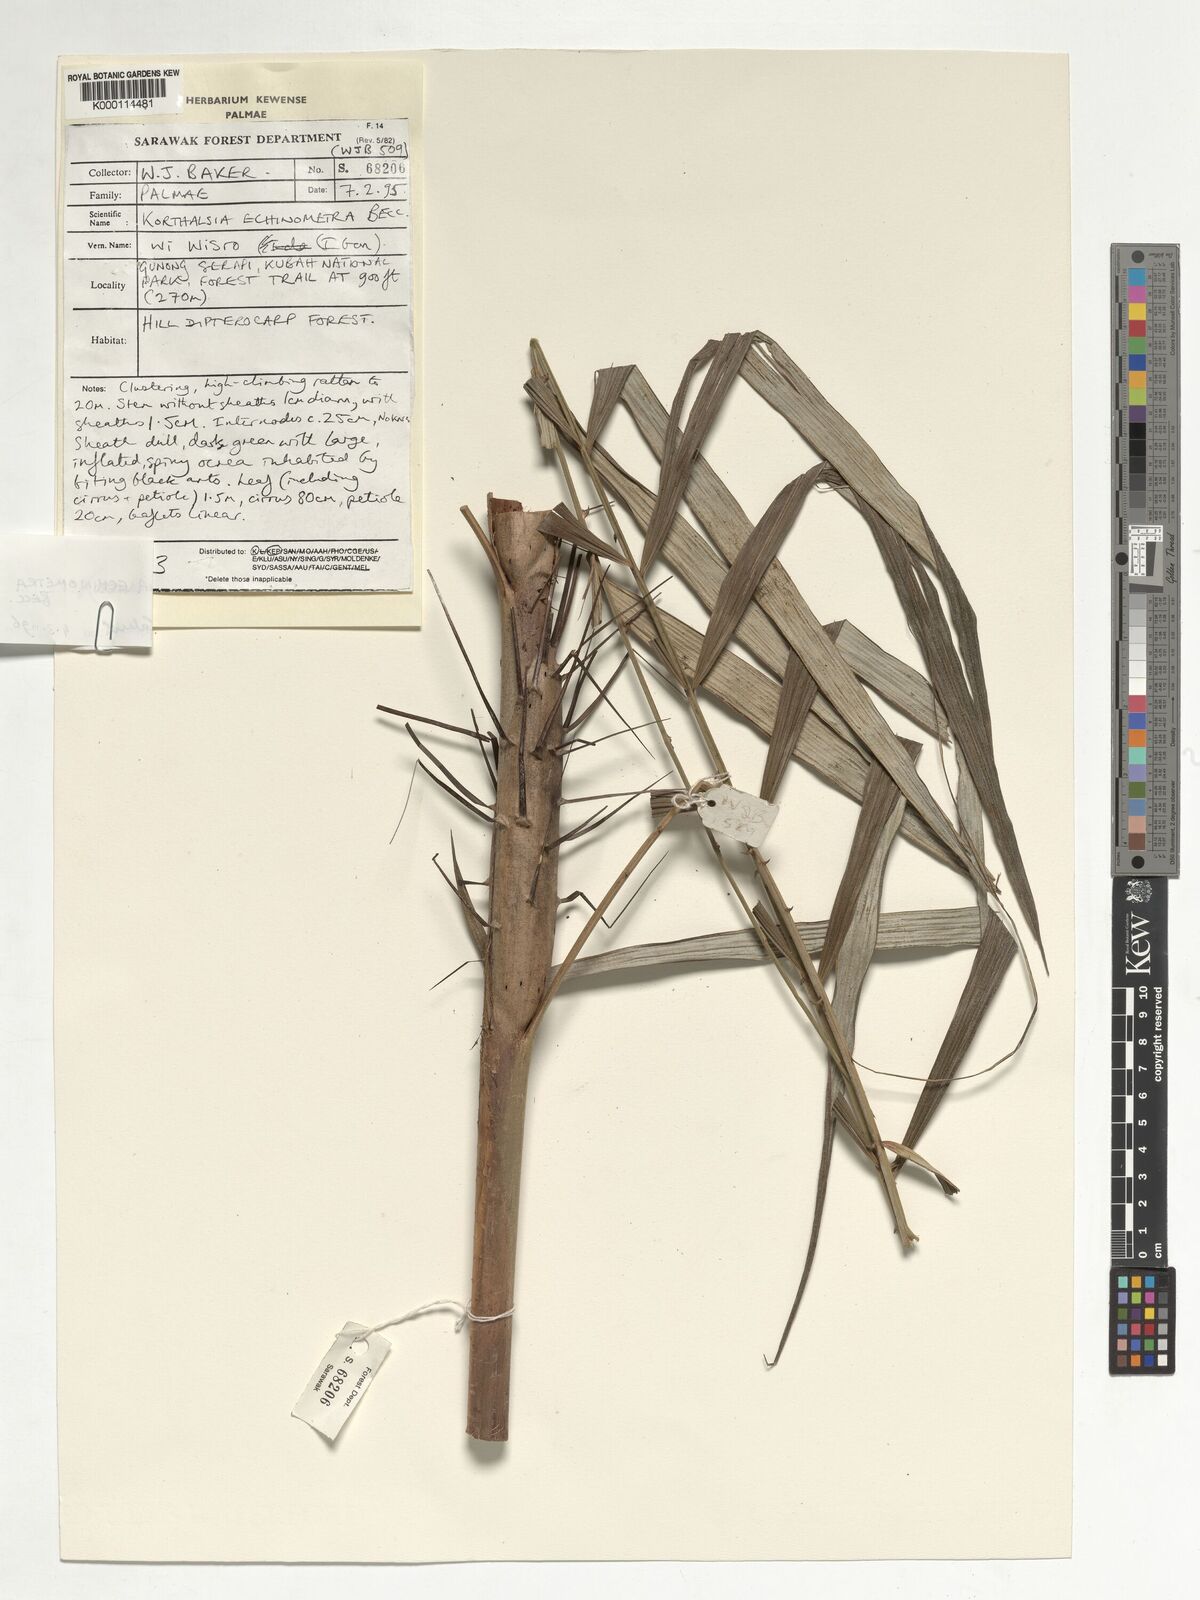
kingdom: Plantae
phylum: Tracheophyta
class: Liliopsida
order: Arecales
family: Arecaceae
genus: Korthalsia
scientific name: Korthalsia echinometra
